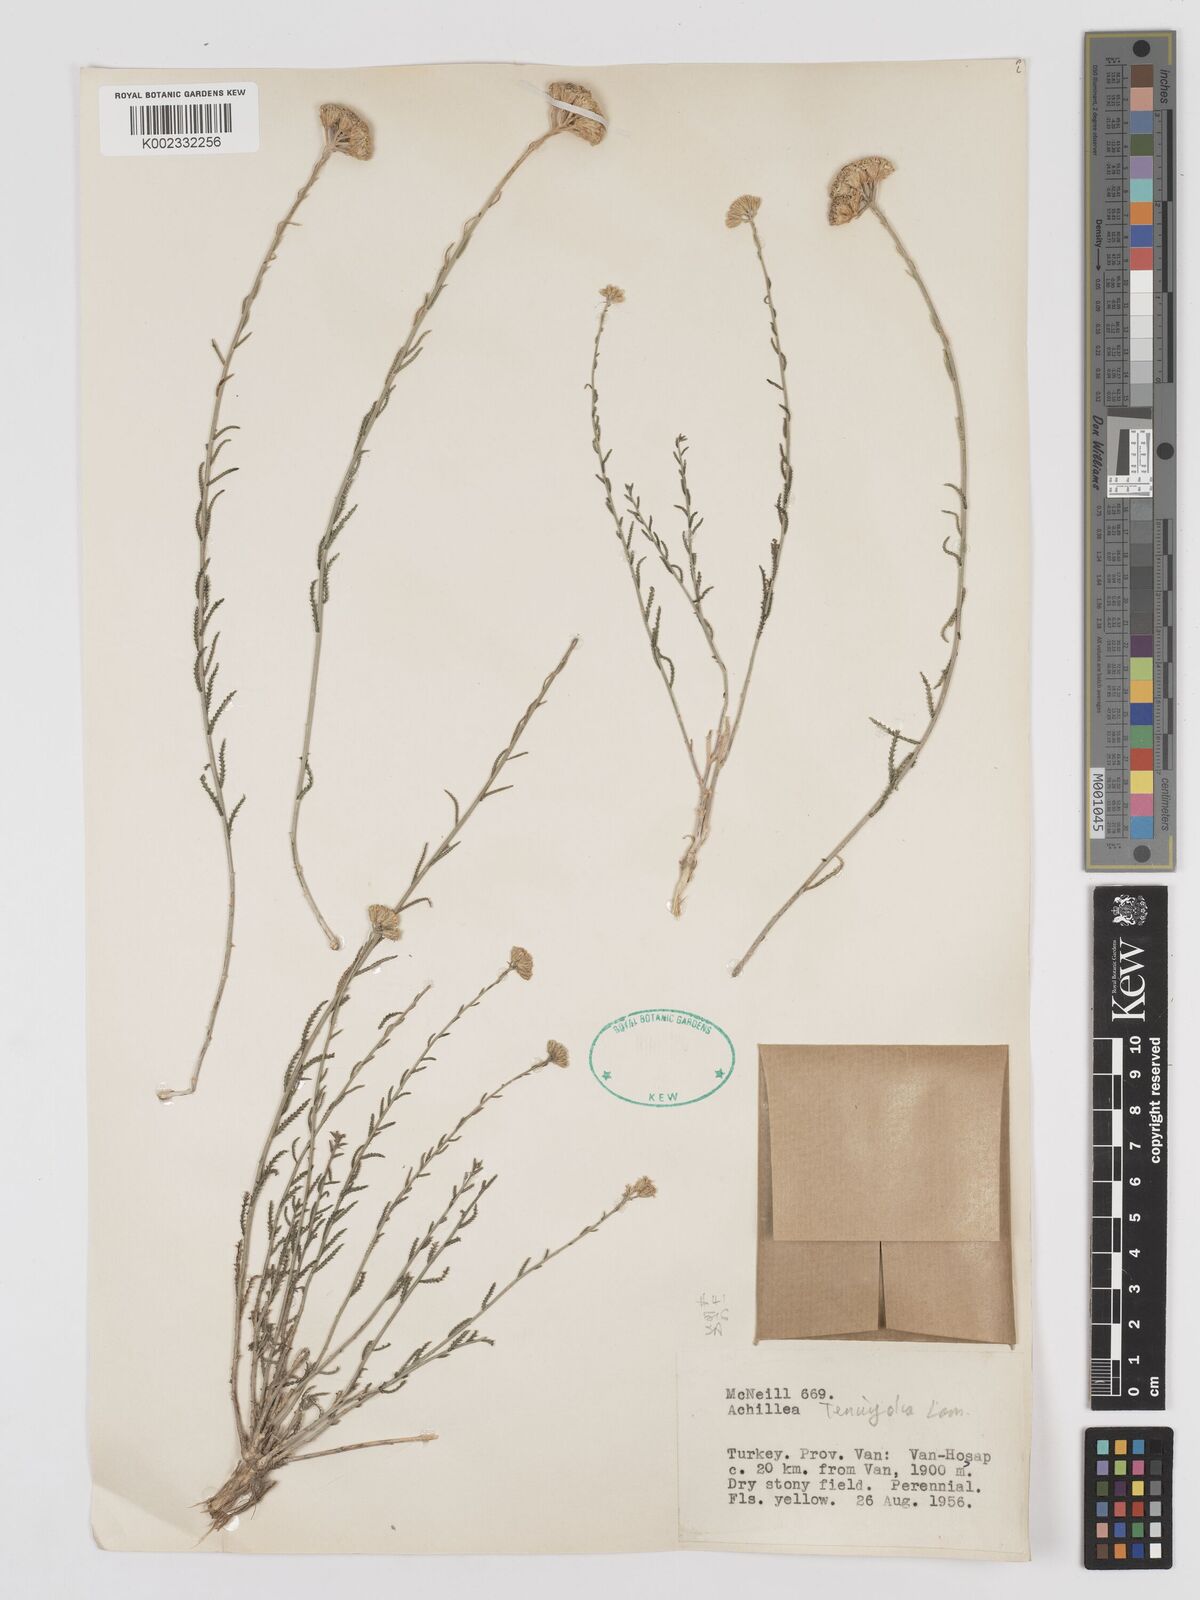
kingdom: Plantae
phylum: Tracheophyta
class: Magnoliopsida
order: Asterales
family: Asteraceae
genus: Achillea
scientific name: Achillea tenuifolia
